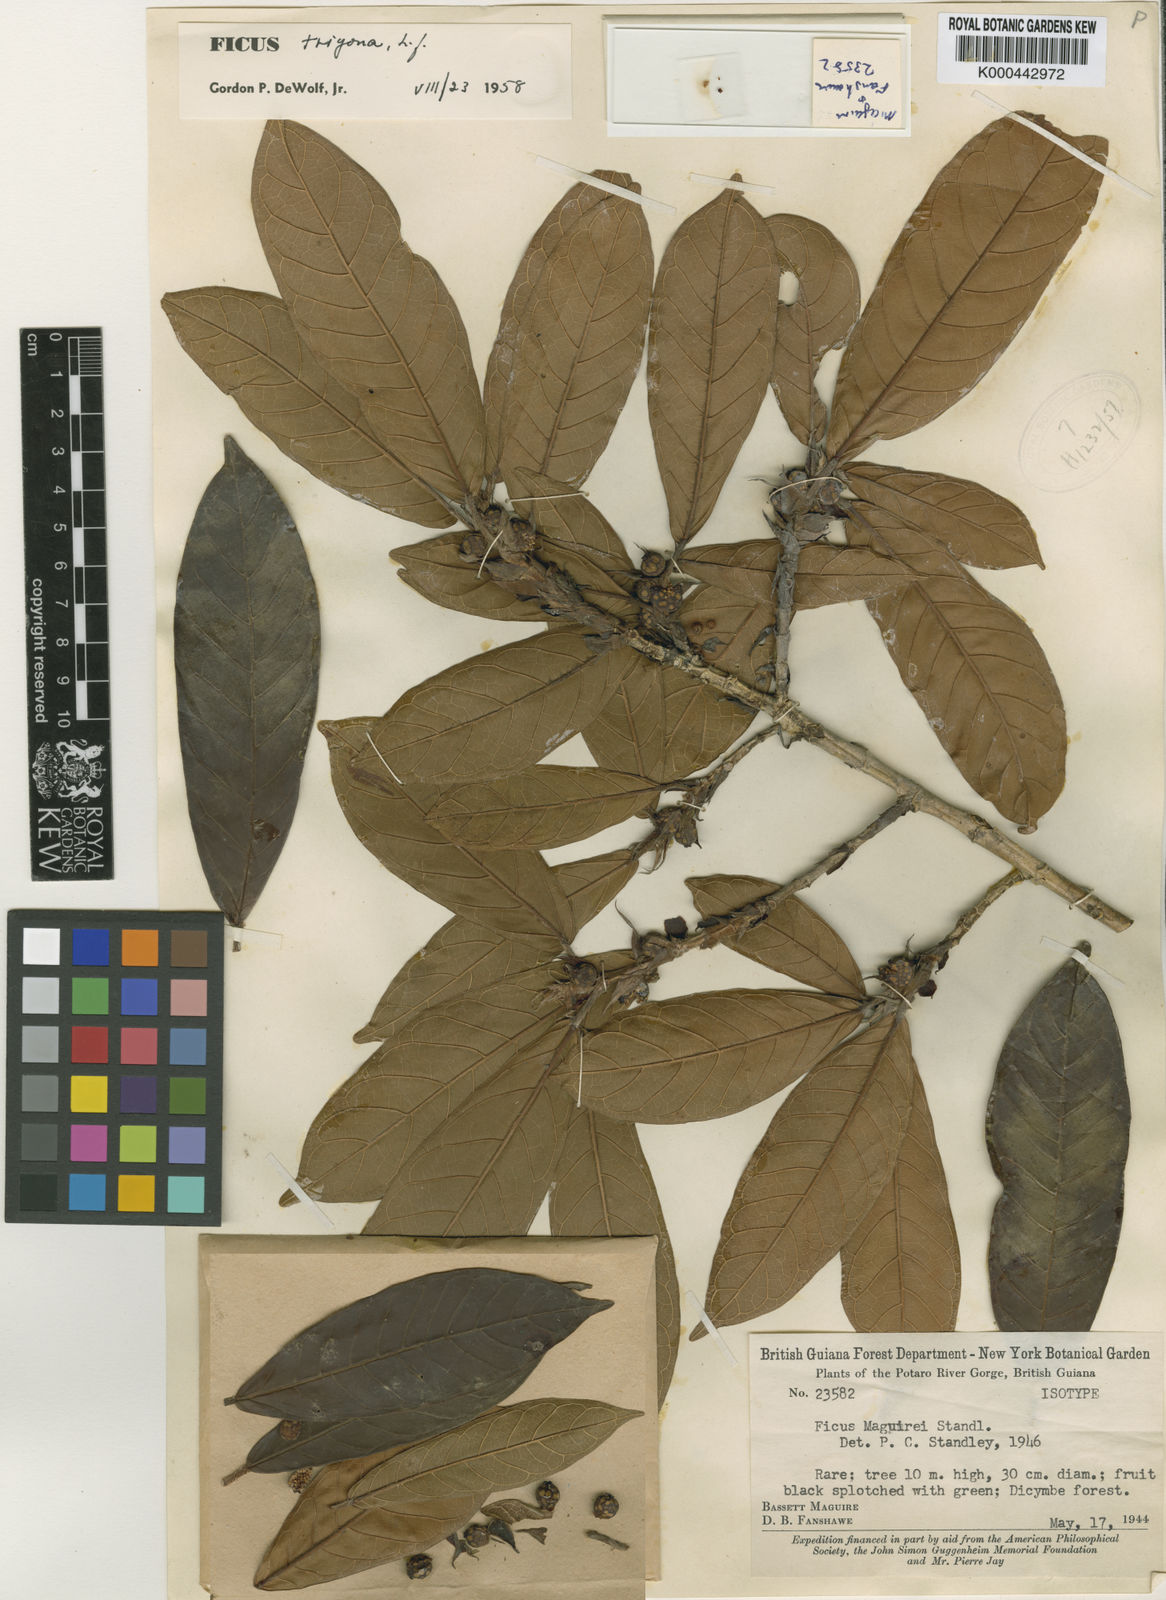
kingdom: Plantae
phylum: Tracheophyta
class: Magnoliopsida
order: Rosales
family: Moraceae
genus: Ficus
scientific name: Ficus trigona
